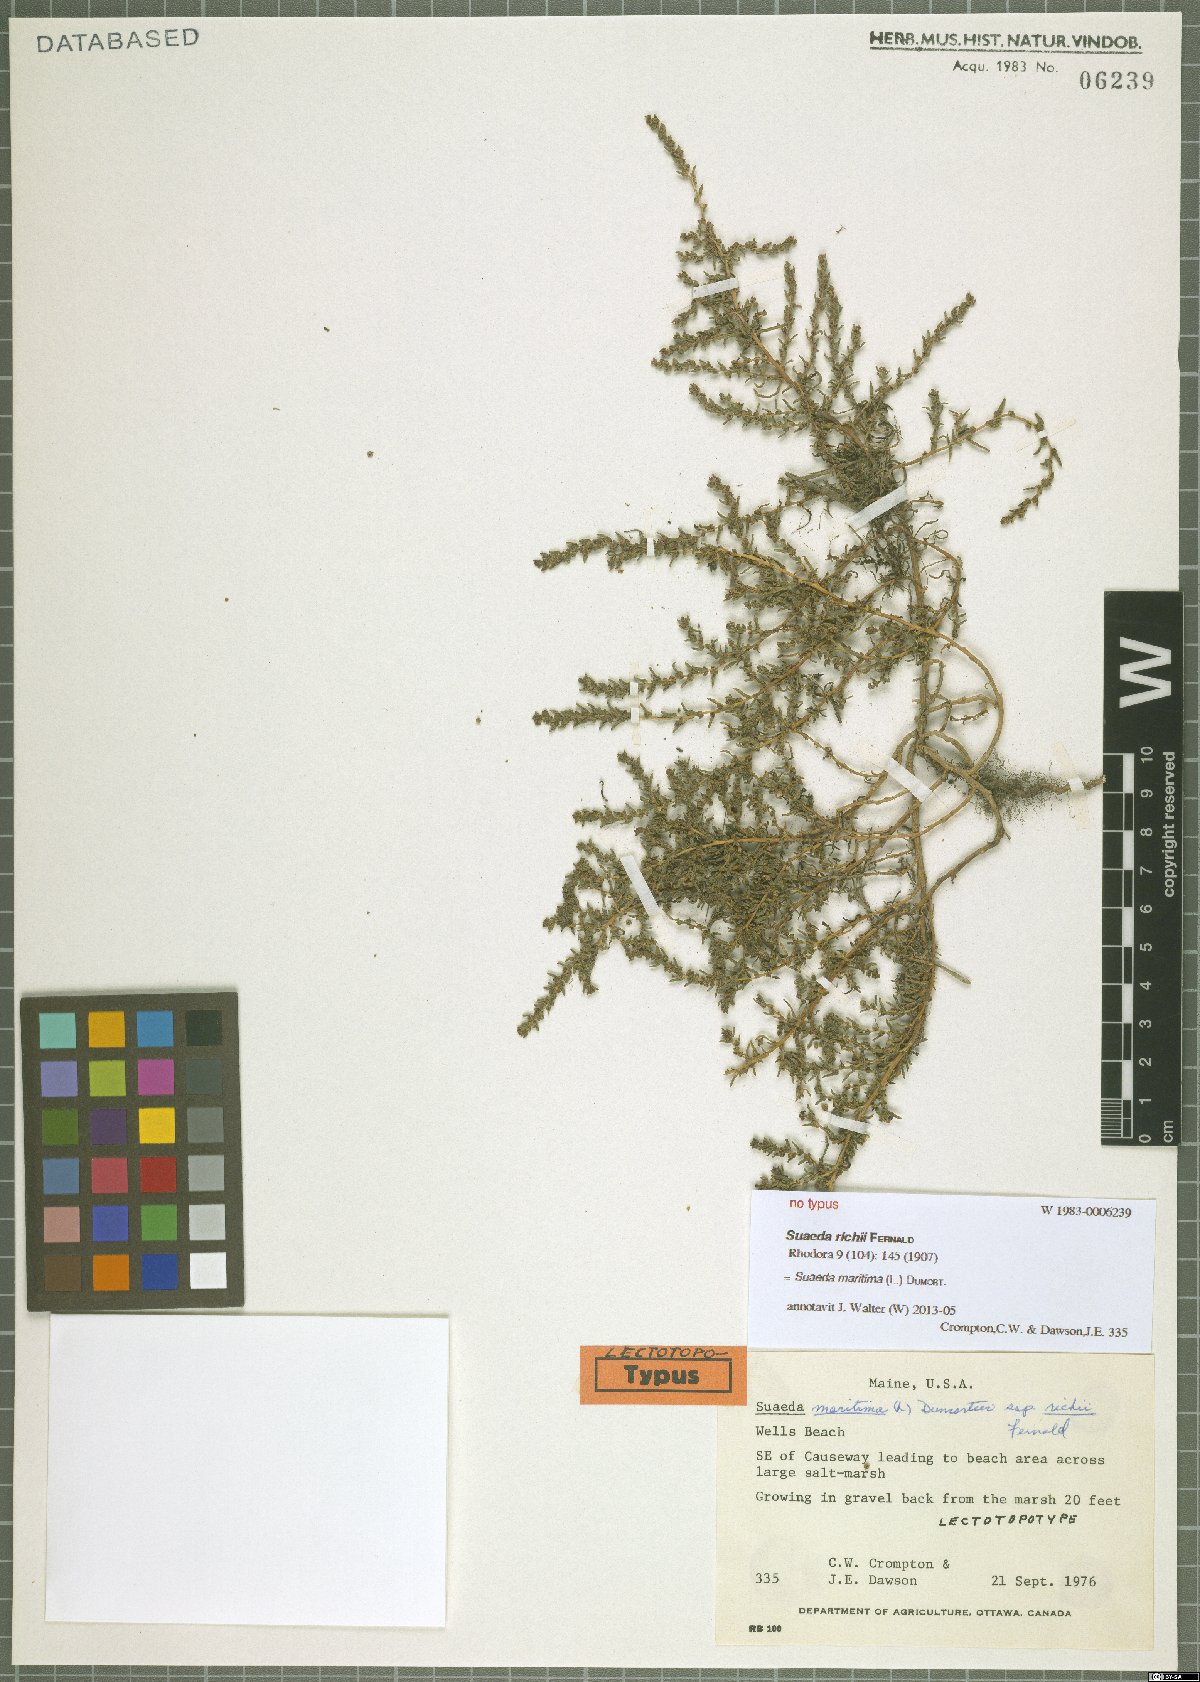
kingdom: Plantae
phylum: Tracheophyta
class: Magnoliopsida
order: Caryophyllales
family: Amaranthaceae
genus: Suaeda
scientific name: Suaeda maritima
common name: Annual sea-blite
